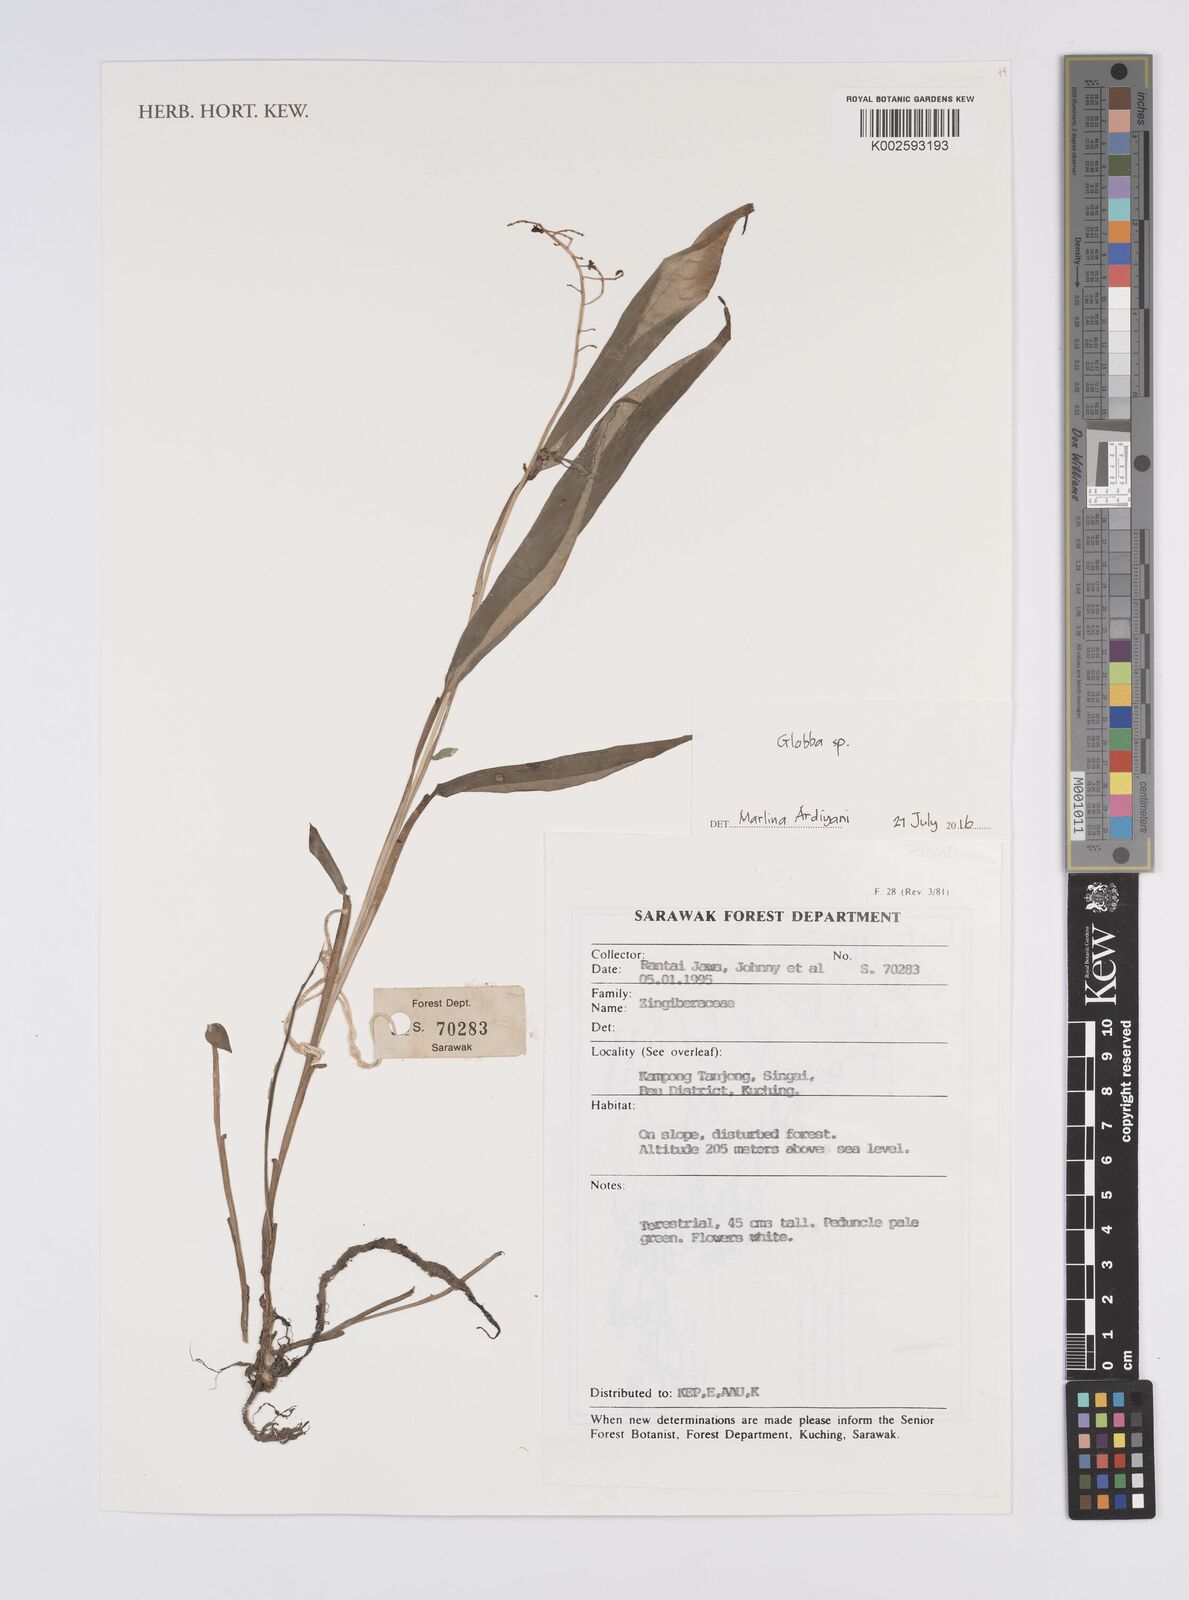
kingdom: Plantae
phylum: Tracheophyta
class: Liliopsida
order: Zingiberales
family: Zingiberaceae
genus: Globba
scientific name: Globba
